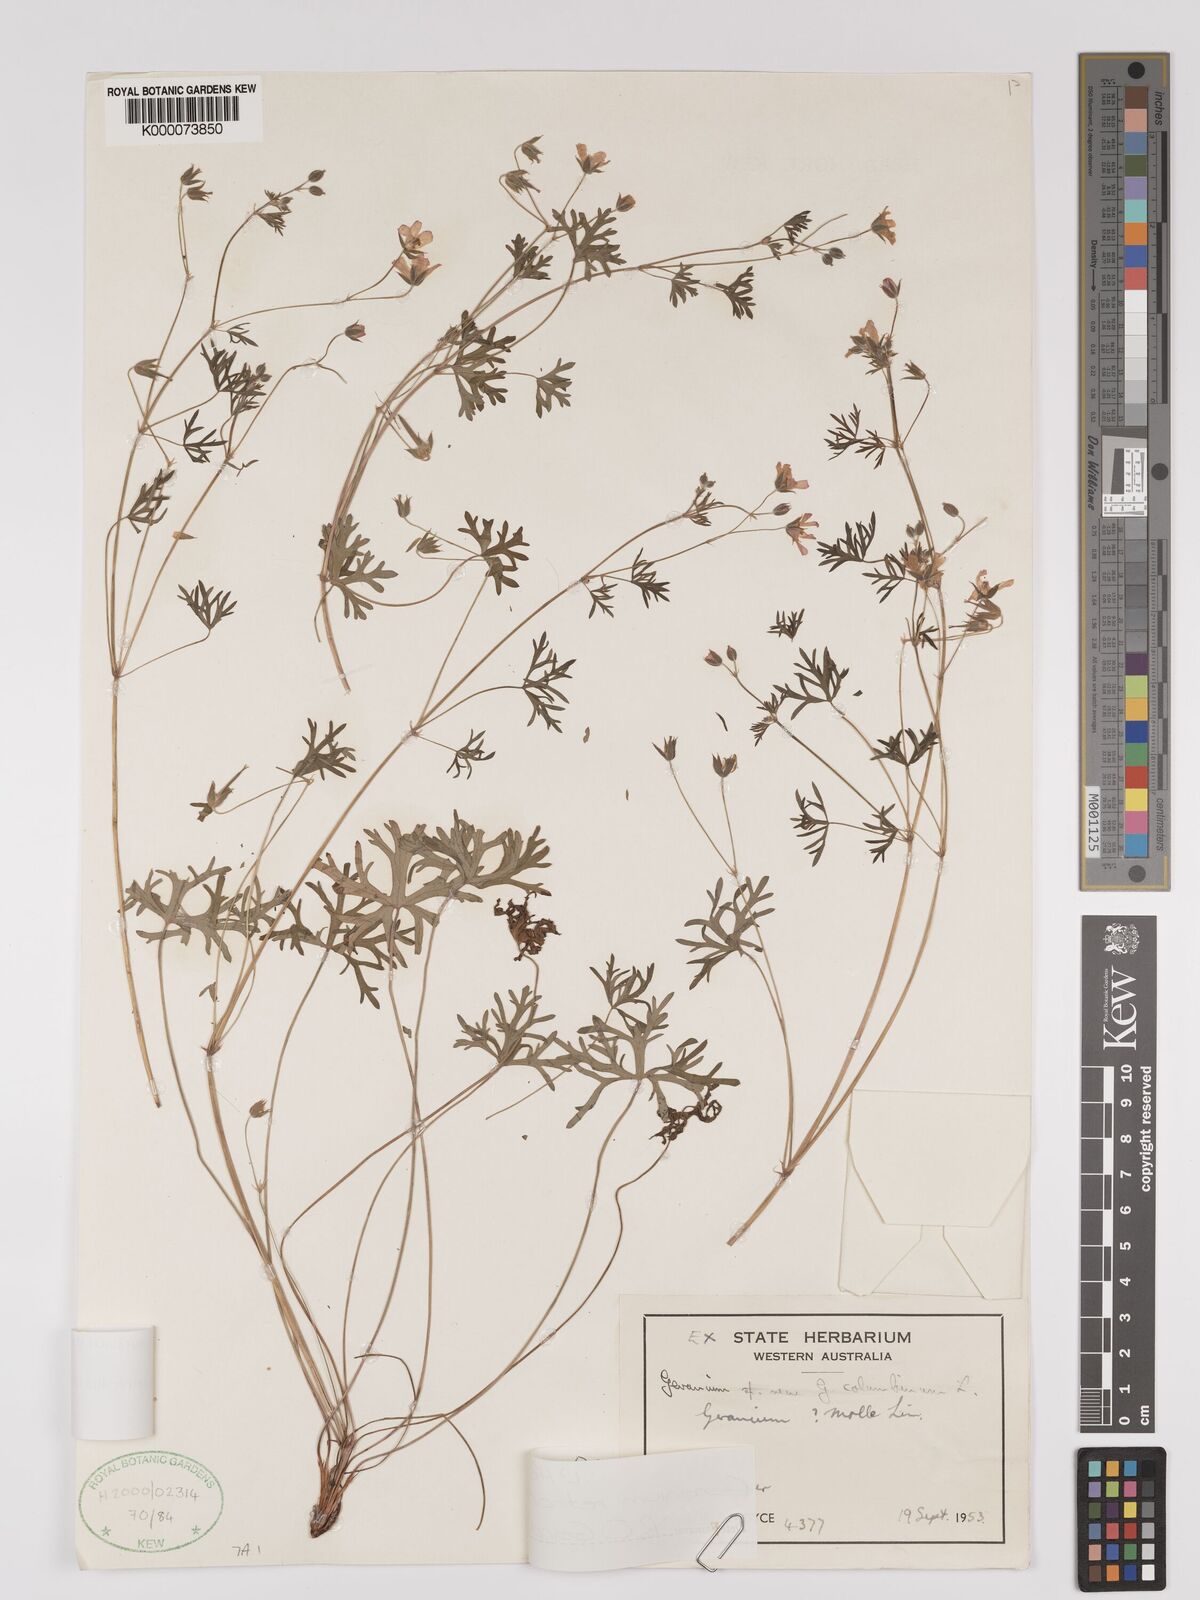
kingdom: Plantae
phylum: Tracheophyta
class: Magnoliopsida
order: Geraniales
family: Geraniaceae
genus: Geranium
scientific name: Geranium retrorsum
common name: New zealand geranium
